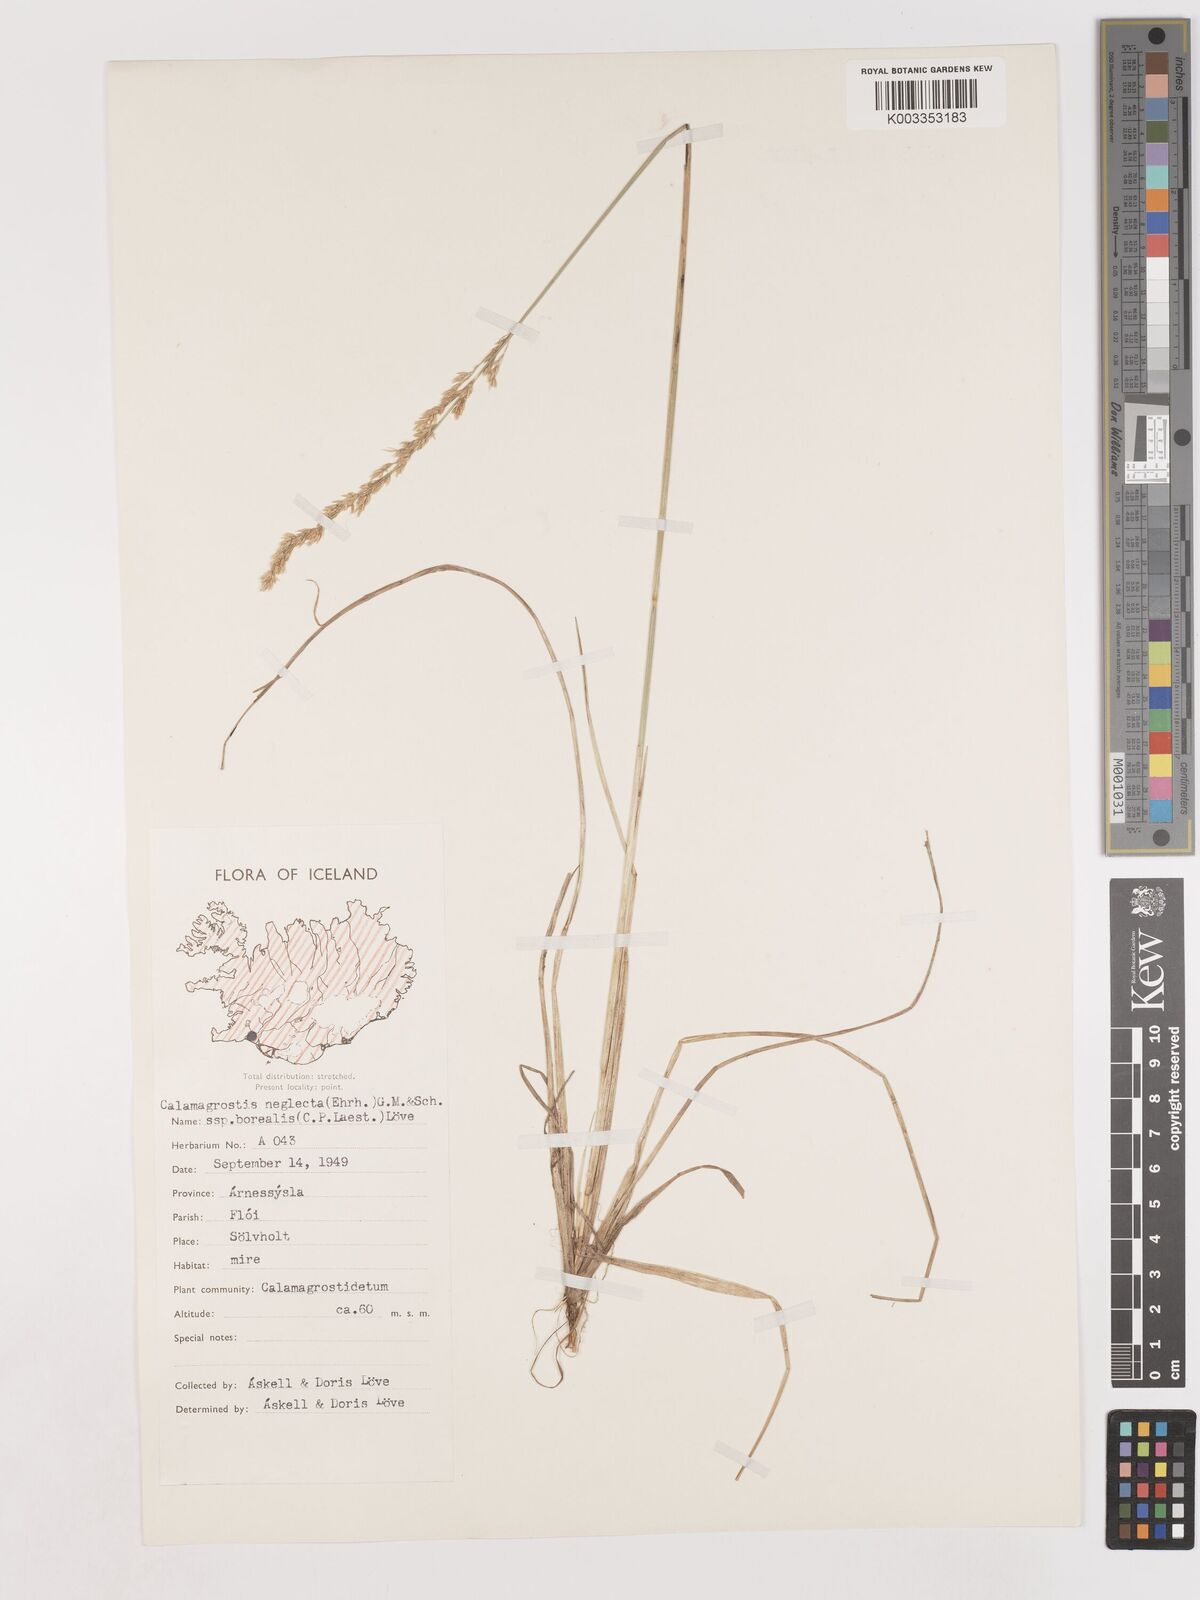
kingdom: Plantae
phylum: Tracheophyta
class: Liliopsida
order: Poales
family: Poaceae
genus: Cinnagrostis
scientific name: Cinnagrostis recta
